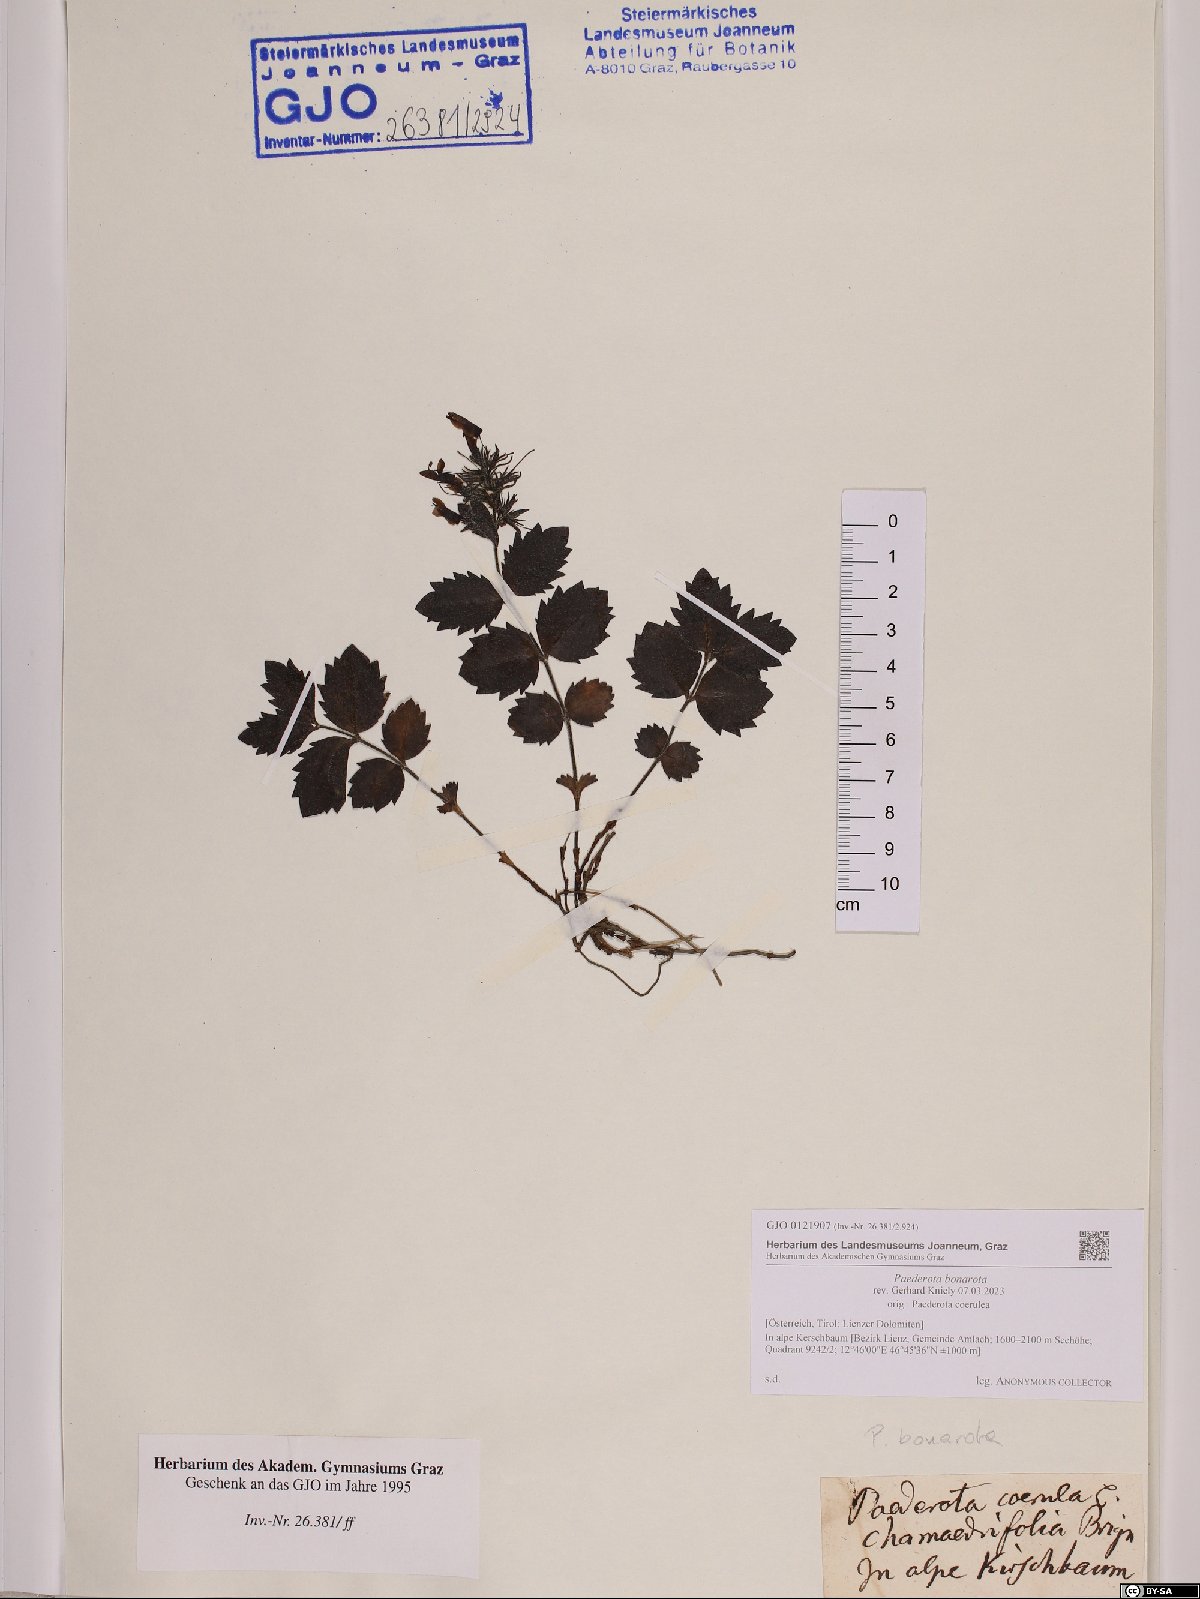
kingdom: Plantae
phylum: Tracheophyta
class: Magnoliopsida
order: Lamiales
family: Plantaginaceae
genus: Paederota
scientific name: Paederota bonarota
